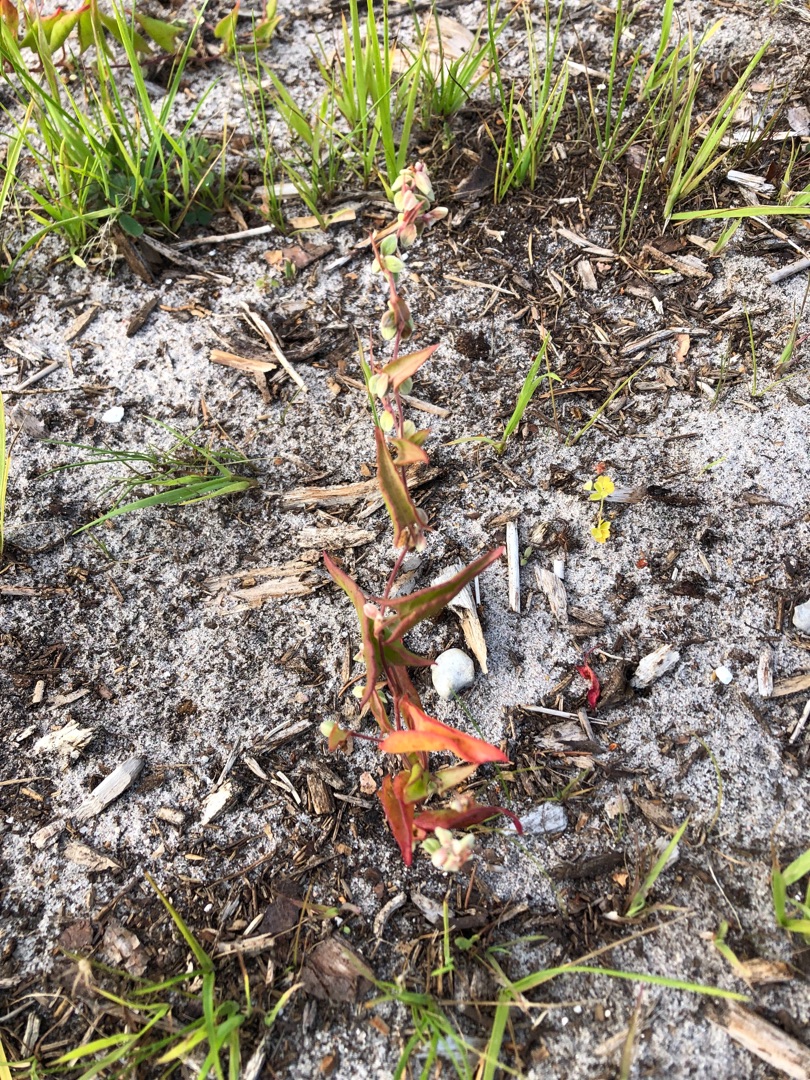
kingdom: Plantae
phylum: Tracheophyta
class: Magnoliopsida
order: Caryophyllales
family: Polygonaceae
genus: Fallopia
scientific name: Fallopia convolvulus
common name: Snerle-pileurt
